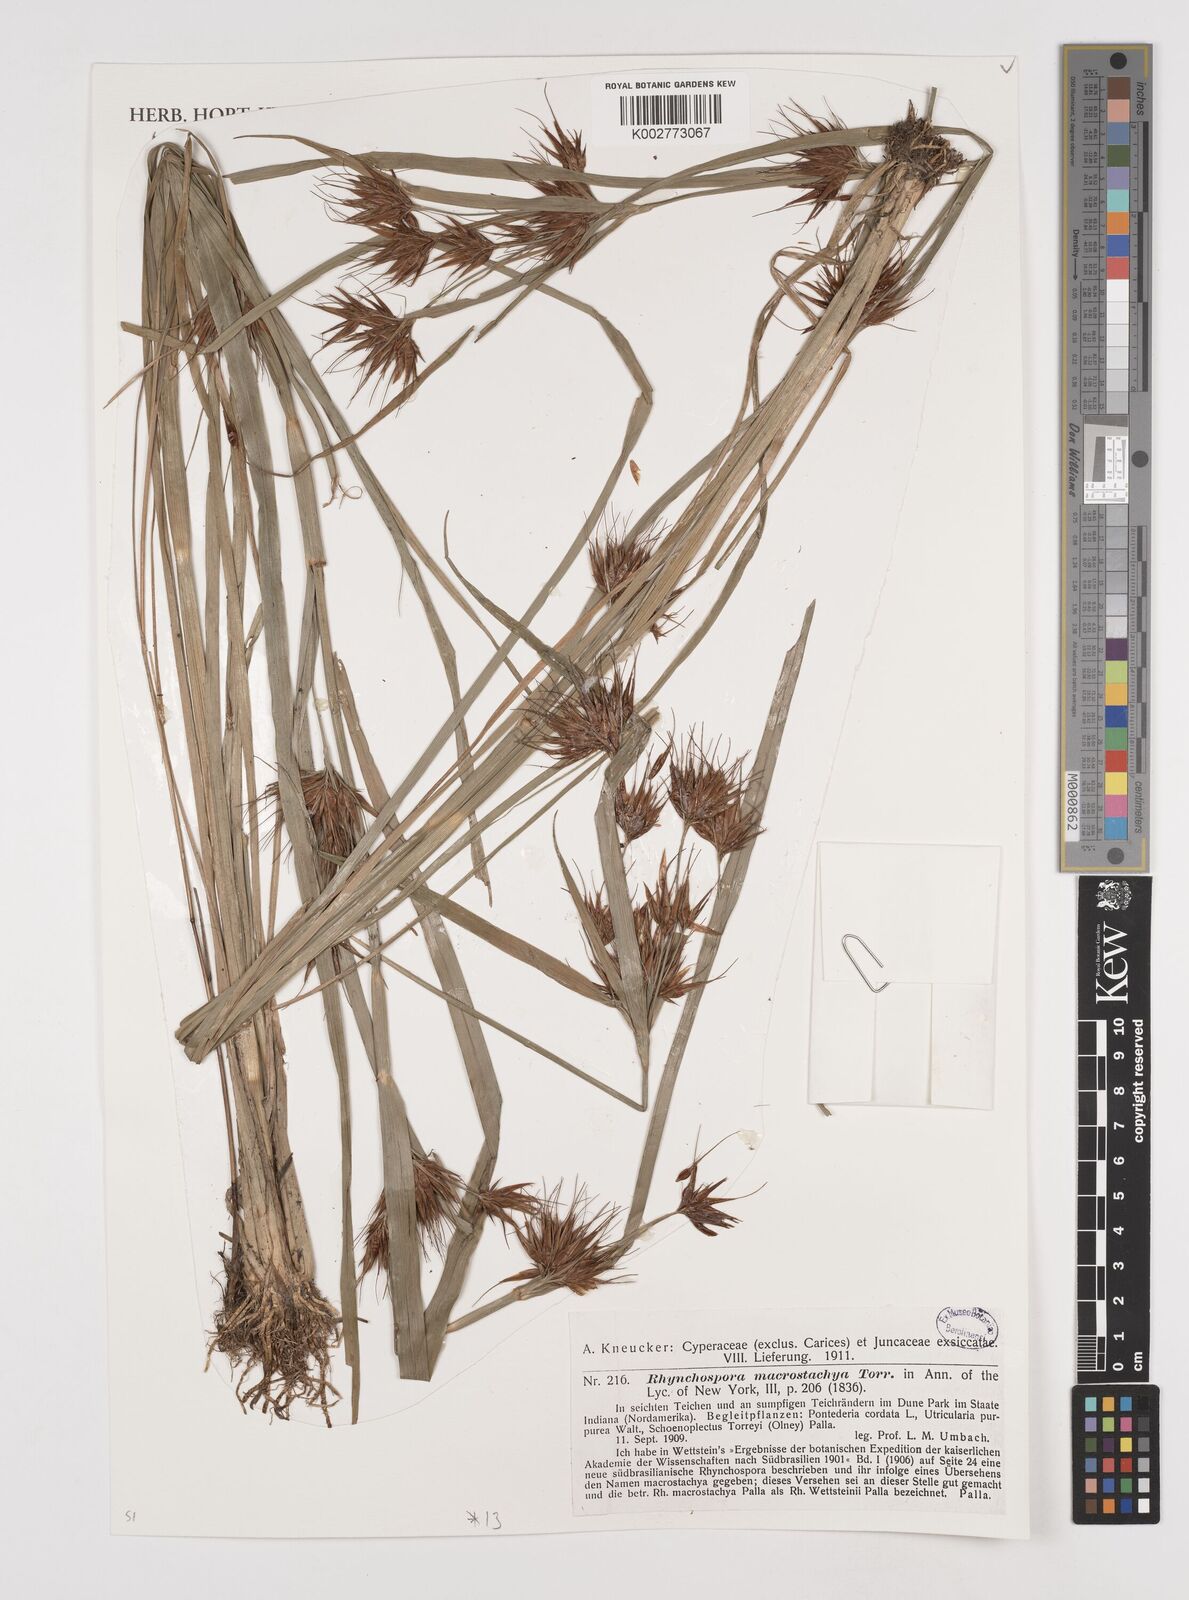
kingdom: Plantae
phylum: Tracheophyta
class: Liliopsida
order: Poales
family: Cyperaceae
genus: Rhynchospora
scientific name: Rhynchospora macrostachya
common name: Tall beakrush
